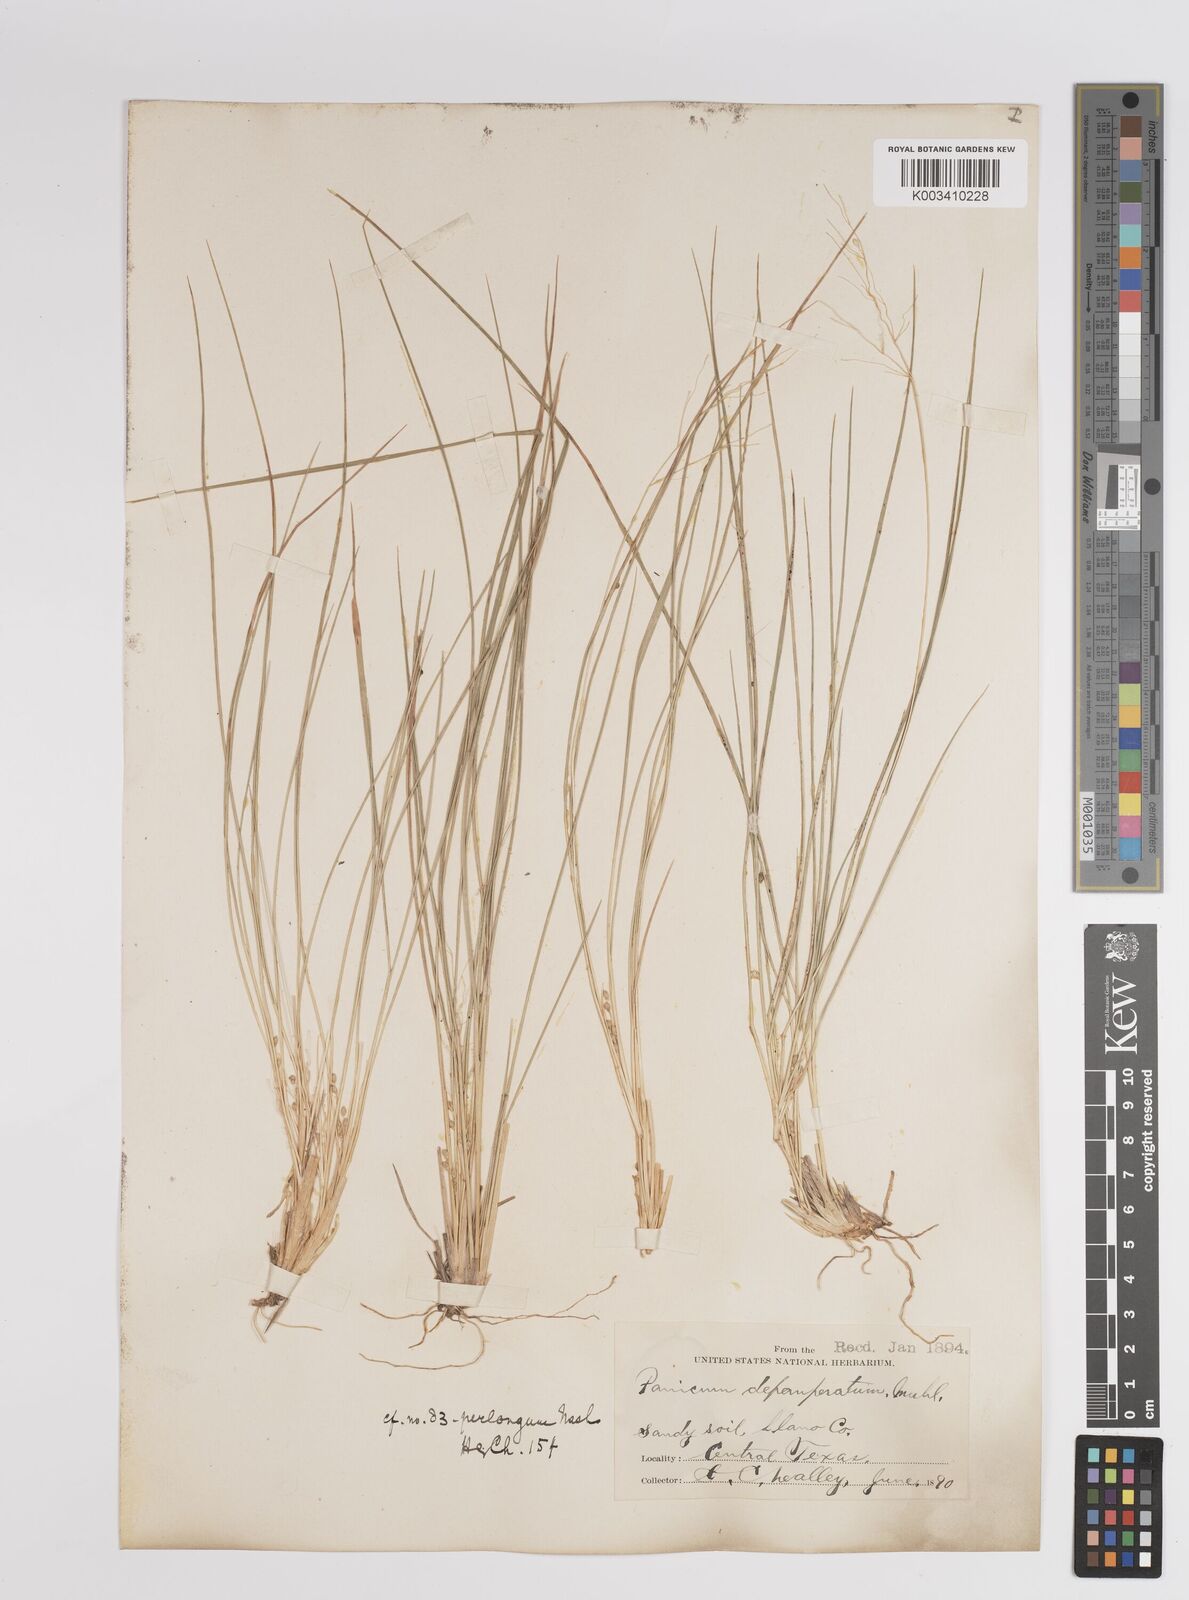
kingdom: Plantae
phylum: Tracheophyta
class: Liliopsida
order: Poales
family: Poaceae
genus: Dichanthelium
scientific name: Dichanthelium linearifolium
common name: Linear-leaved panicgrass
